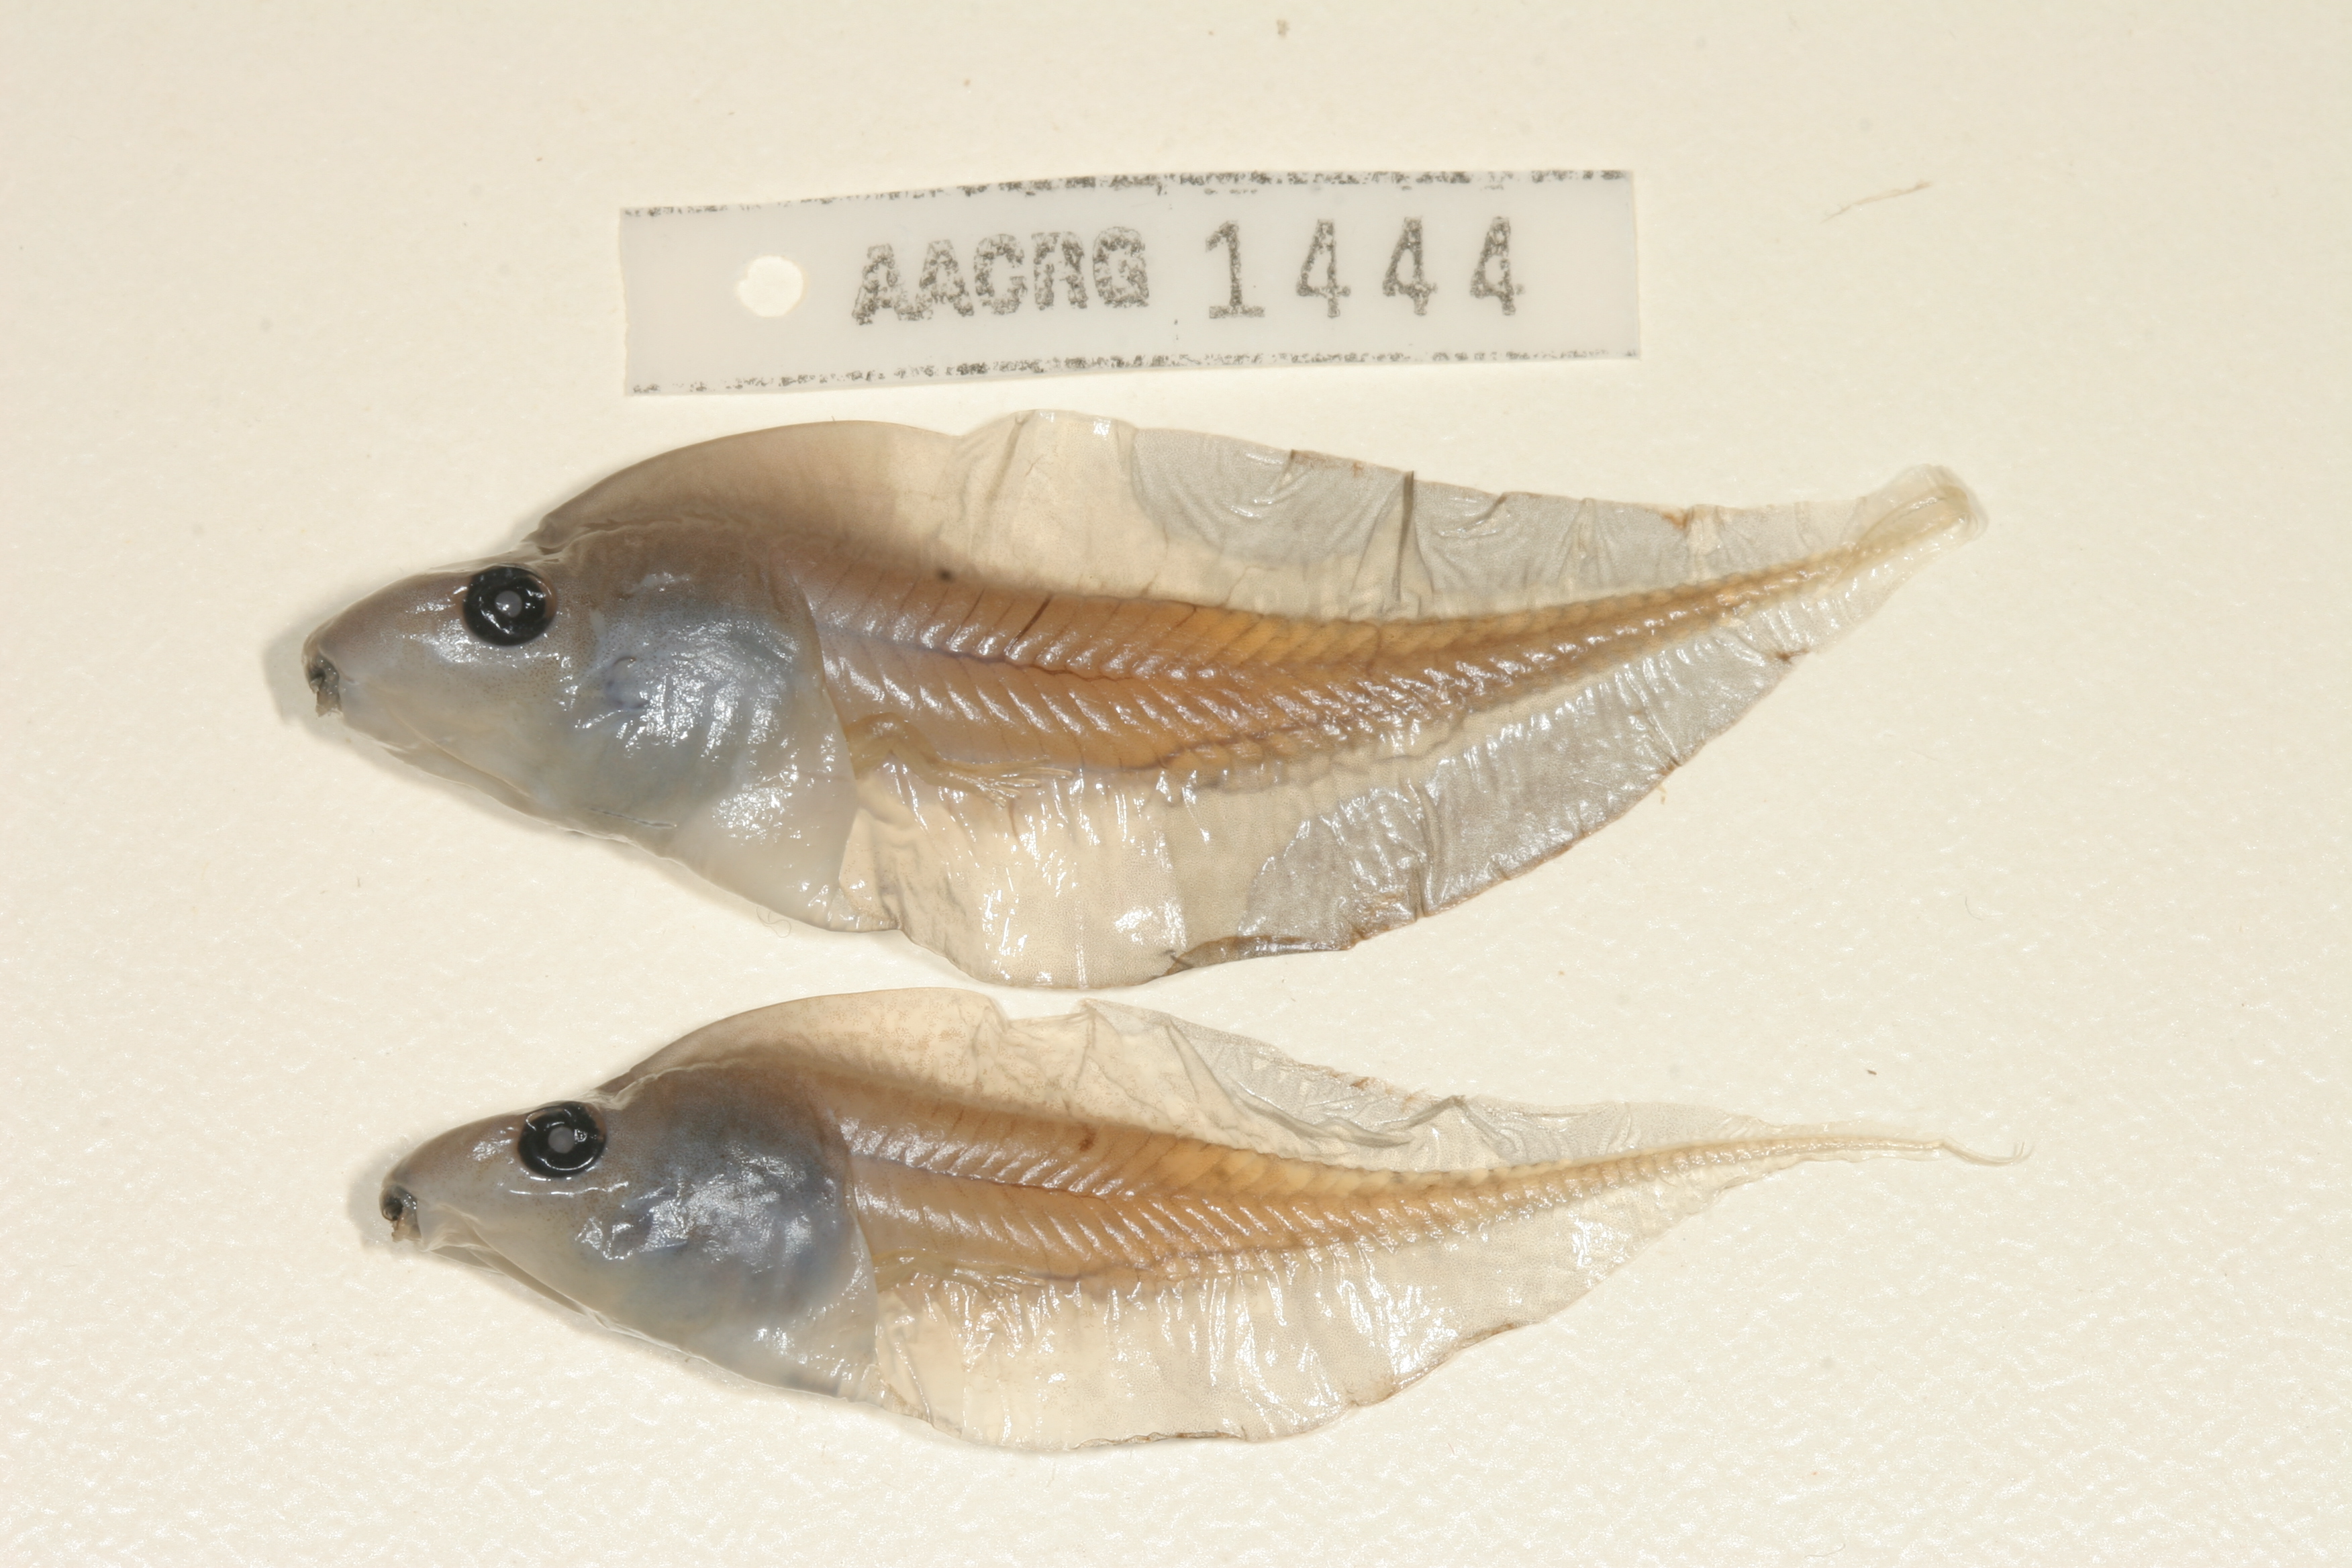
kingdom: Animalia
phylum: Chordata
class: Amphibia
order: Anura
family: Hyperoliidae
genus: Kassina
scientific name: Kassina senegalensis
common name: Senegal land frog
